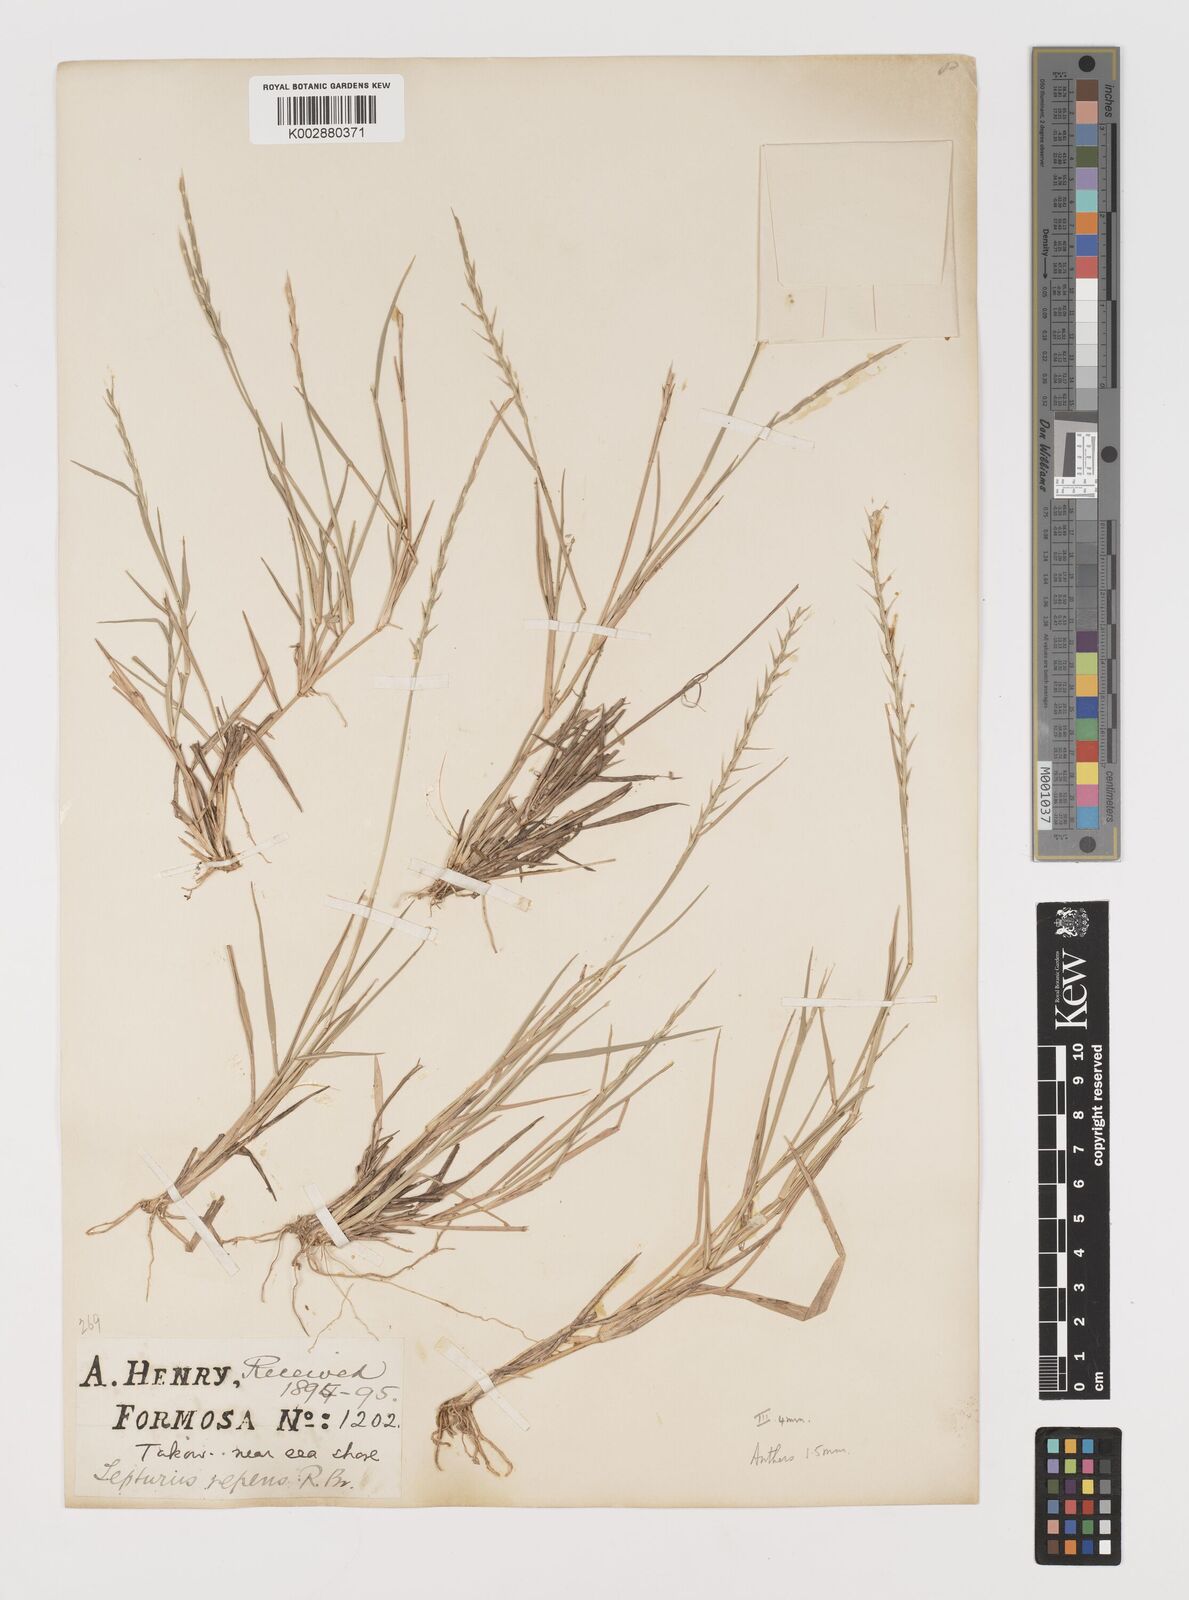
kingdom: Plantae
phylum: Tracheophyta
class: Liliopsida
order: Poales
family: Poaceae
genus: Lepturus
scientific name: Lepturus repens
